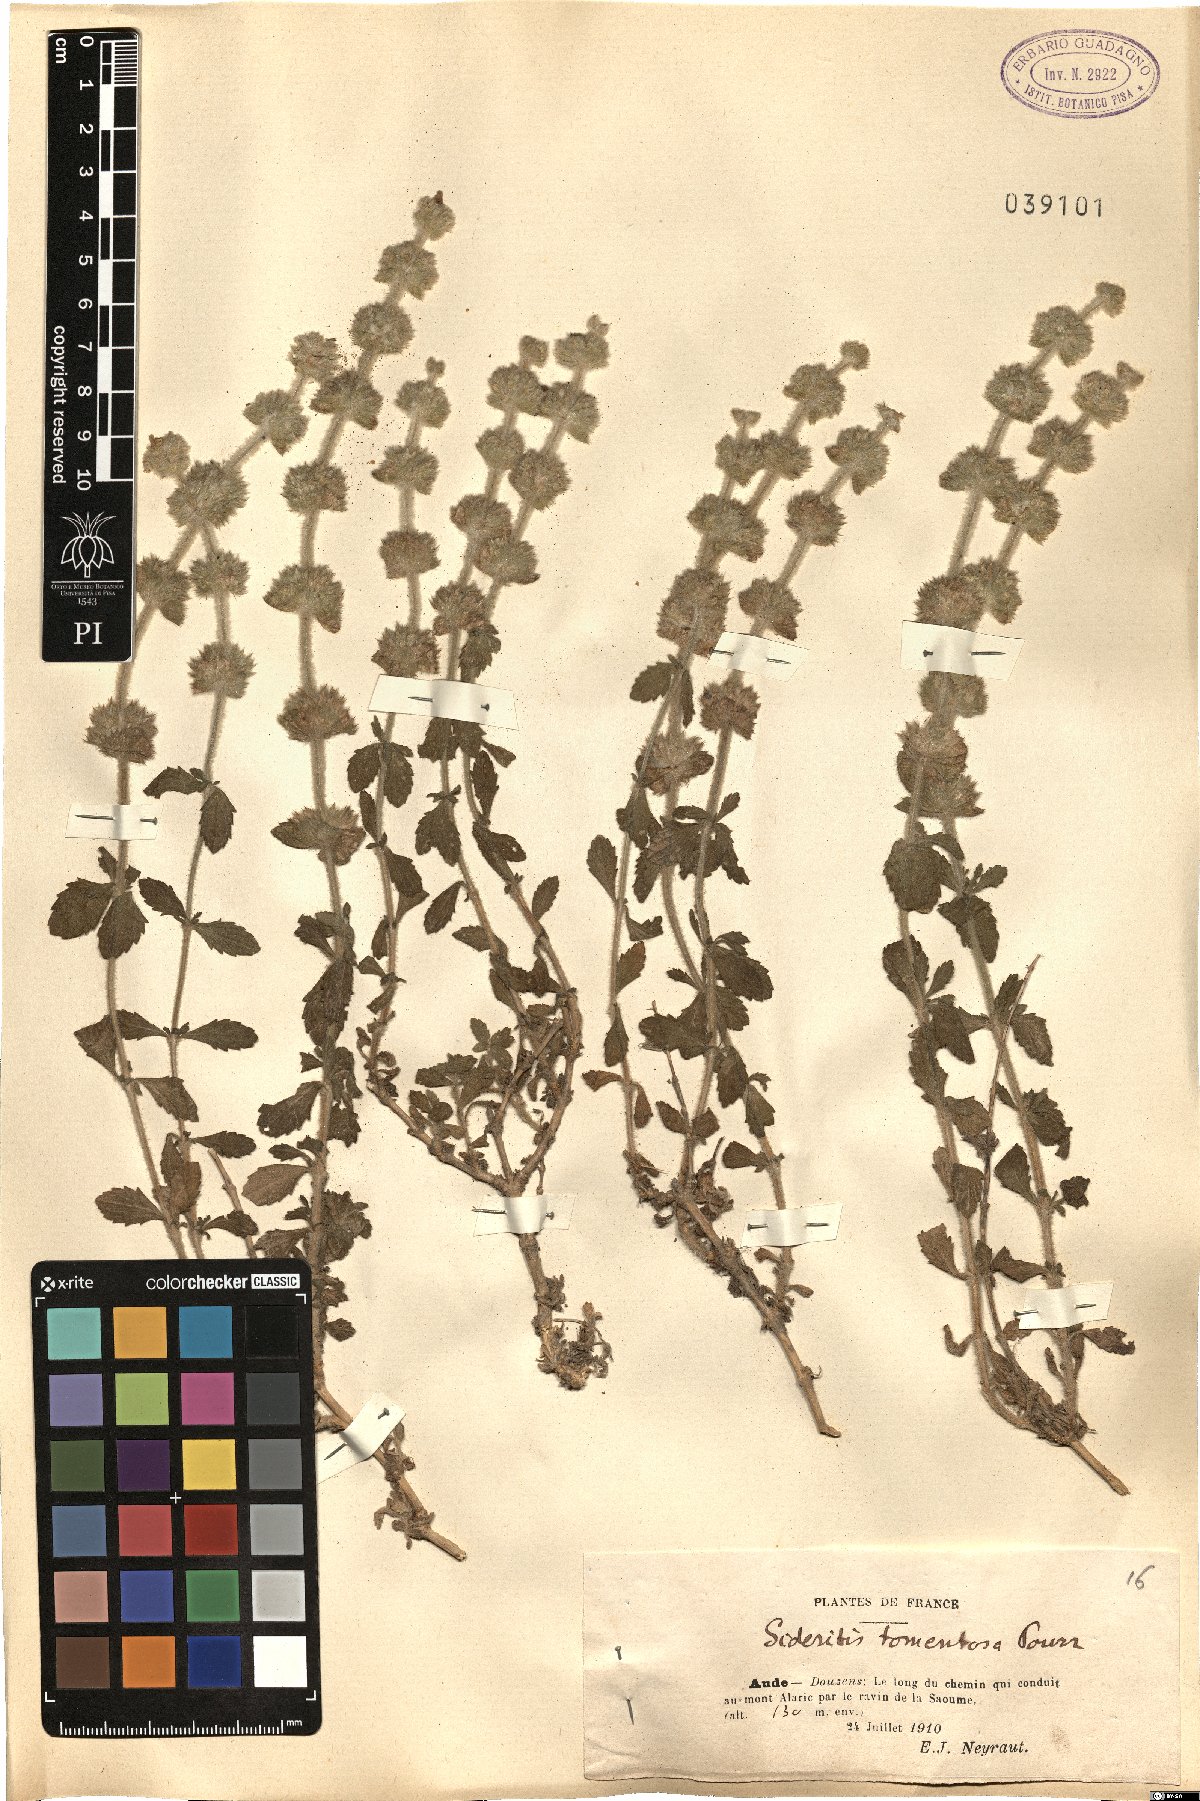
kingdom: Plantae
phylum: Tracheophyta
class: Magnoliopsida
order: Lamiales
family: Lamiaceae
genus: Sideritis
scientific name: Sideritis hirsuta
